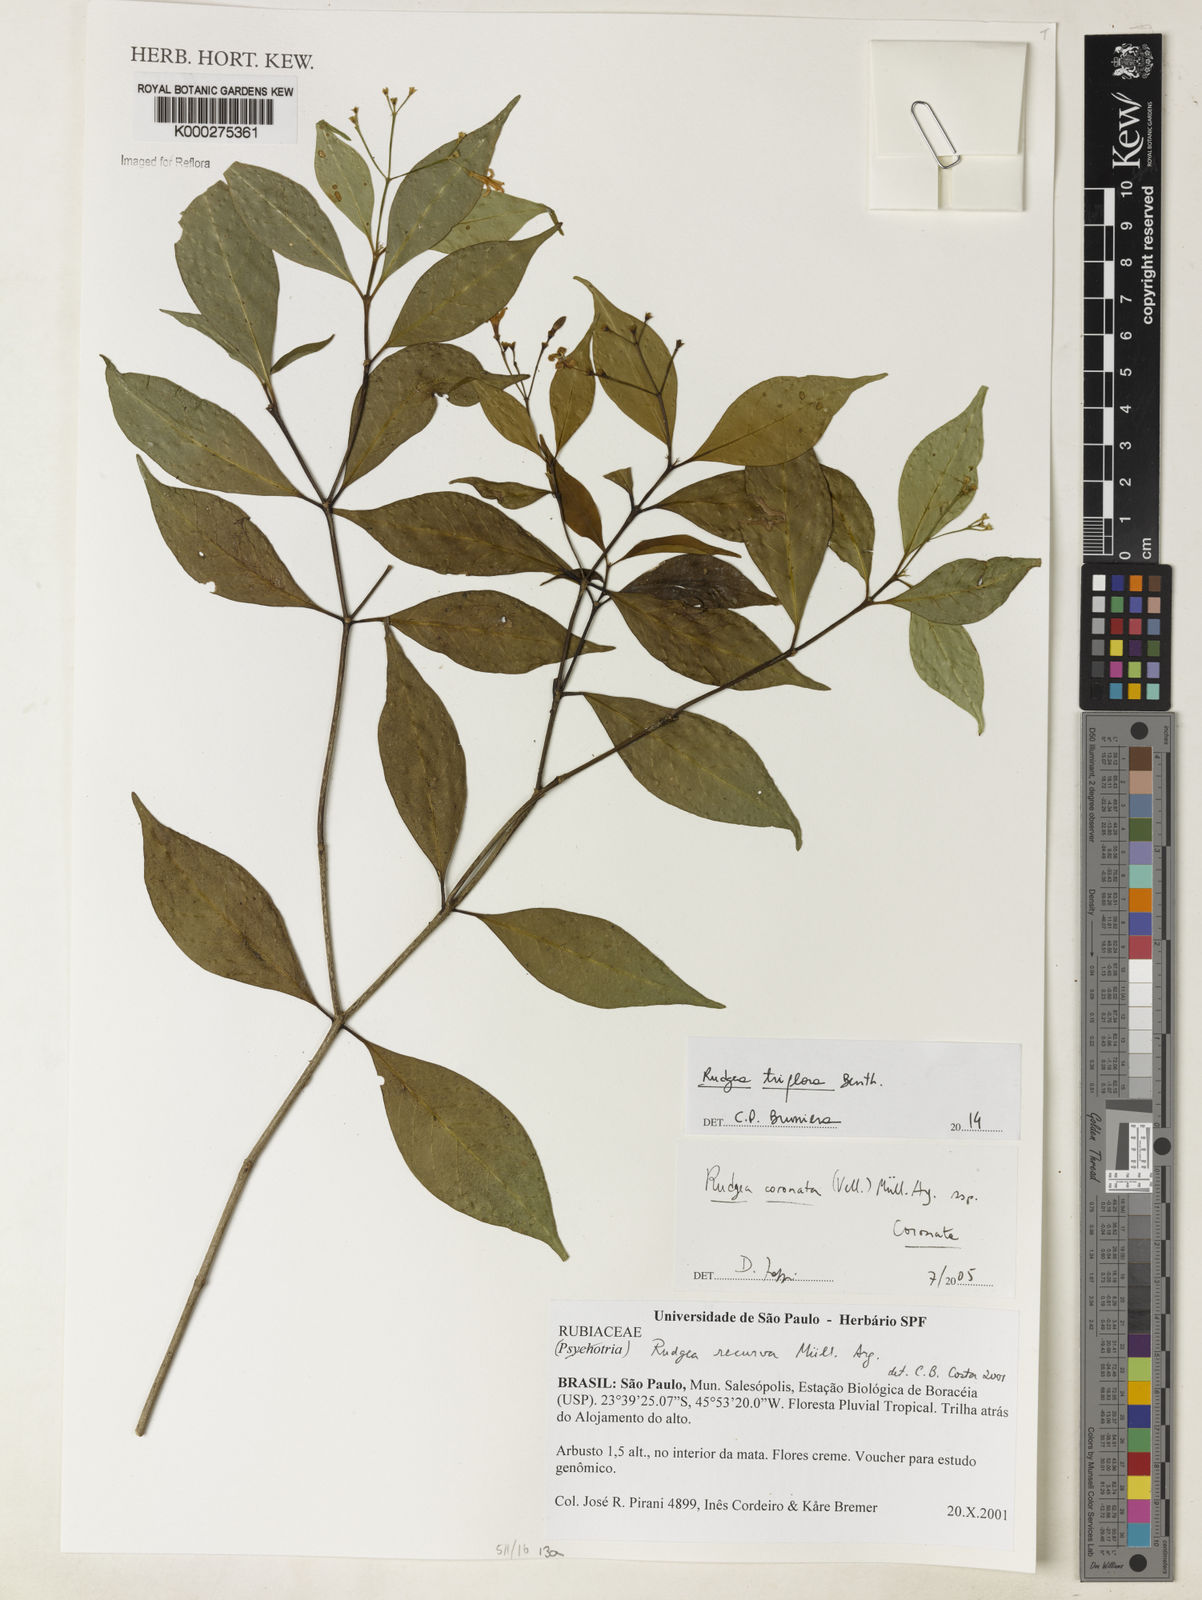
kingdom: Plantae
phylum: Tracheophyta
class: Magnoliopsida
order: Gentianales
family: Rubiaceae
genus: Rudgea
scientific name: Rudgea triflora
